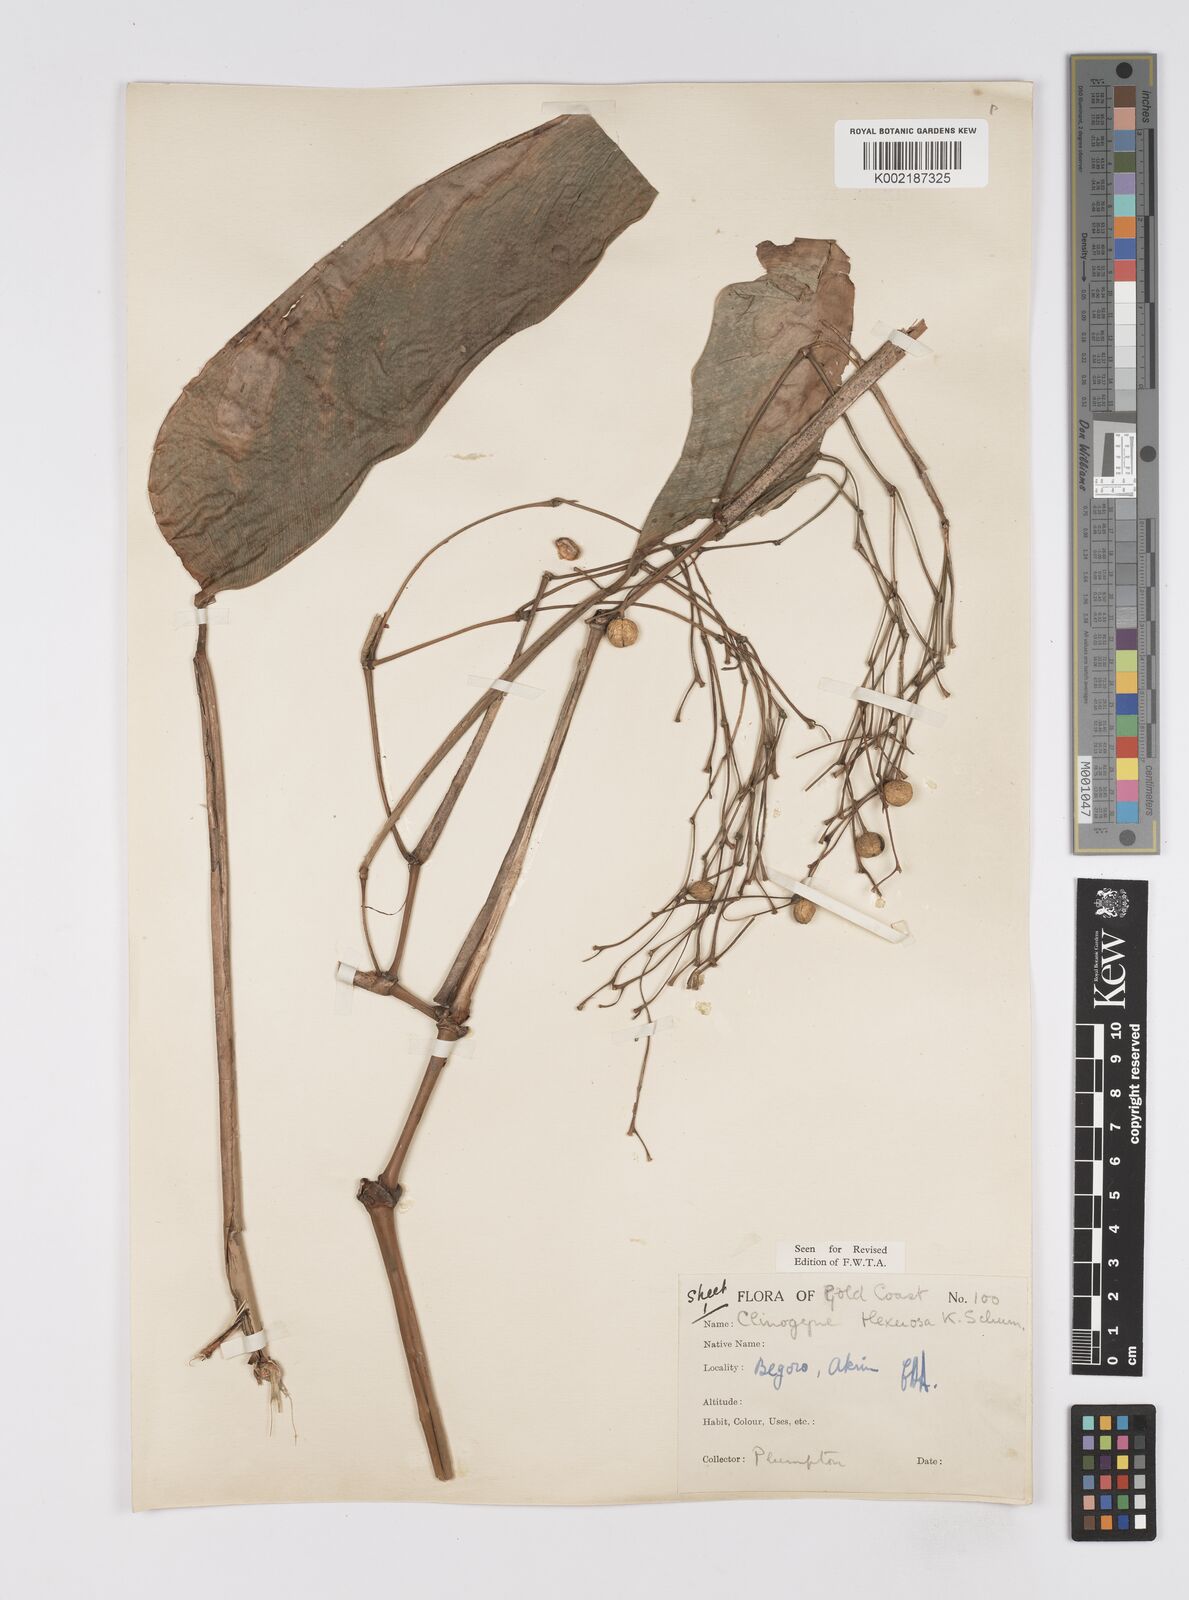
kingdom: Plantae
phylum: Tracheophyta
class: Liliopsida
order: Zingiberales
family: Marantaceae
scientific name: Marantaceae
